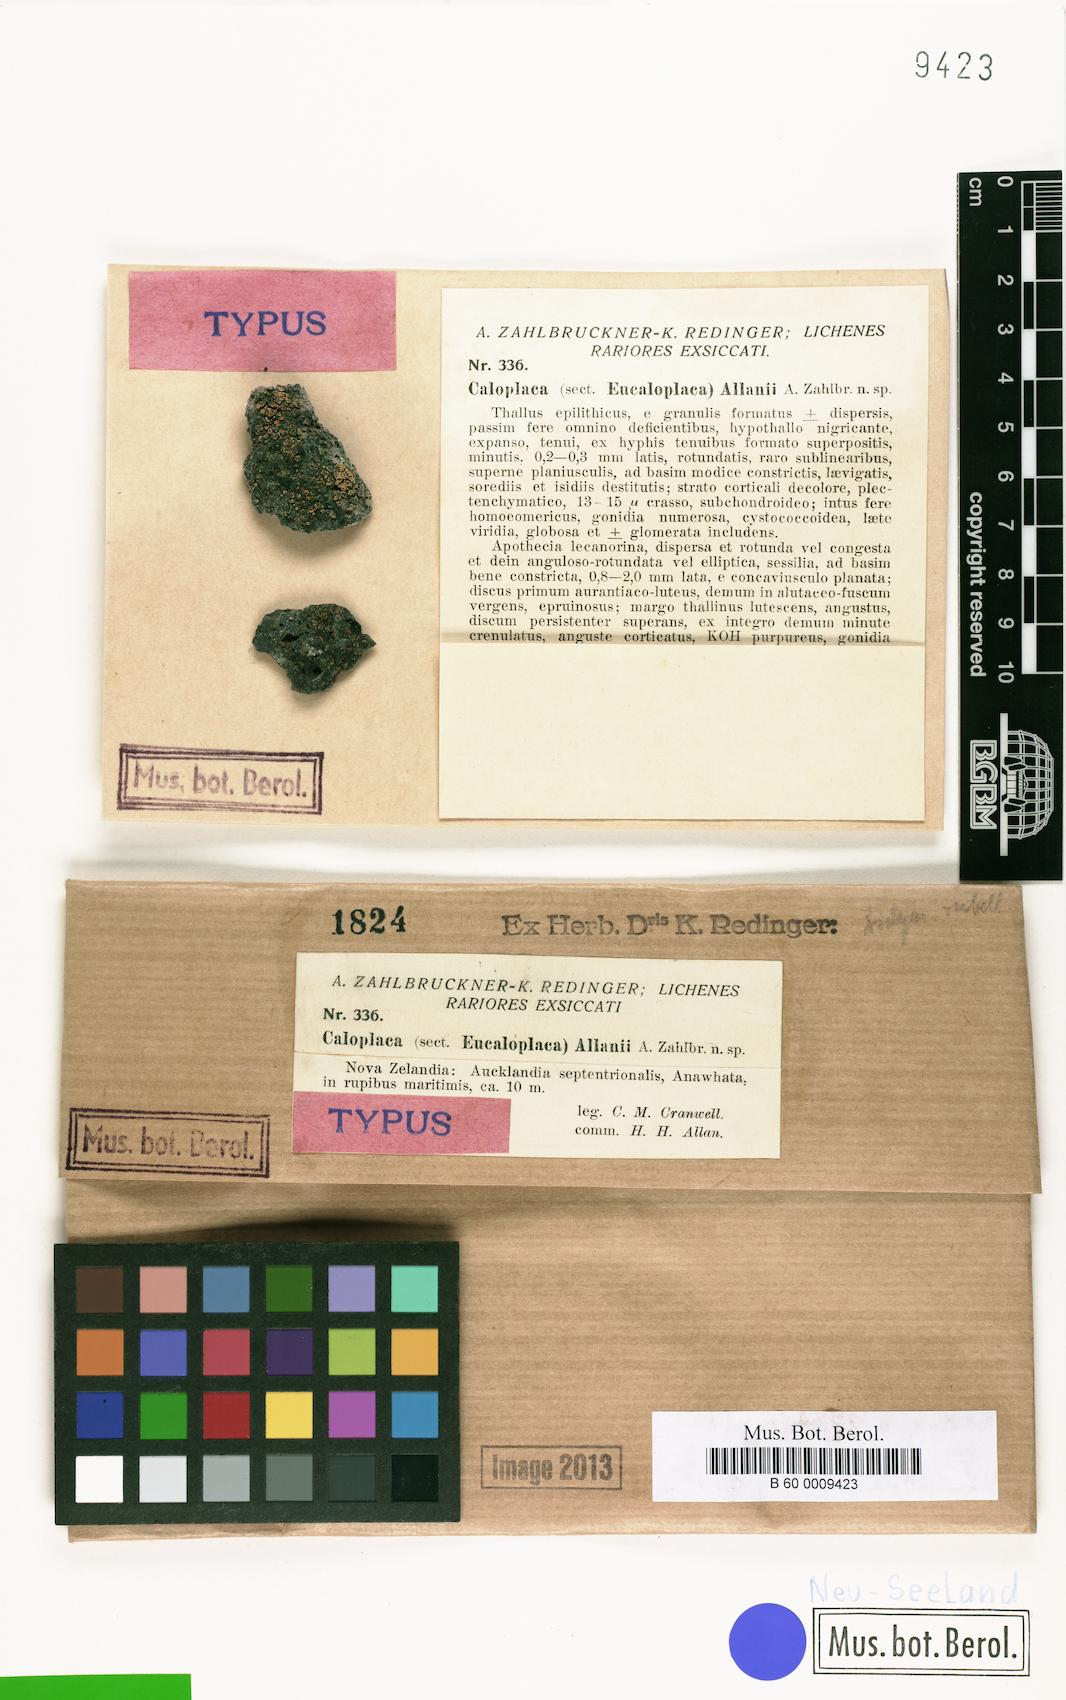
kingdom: Fungi
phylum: Ascomycota
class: Lecanoromycetes
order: Teloschistales
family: Teloschistaceae
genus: Caloplaca
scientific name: Caloplaca allanii
